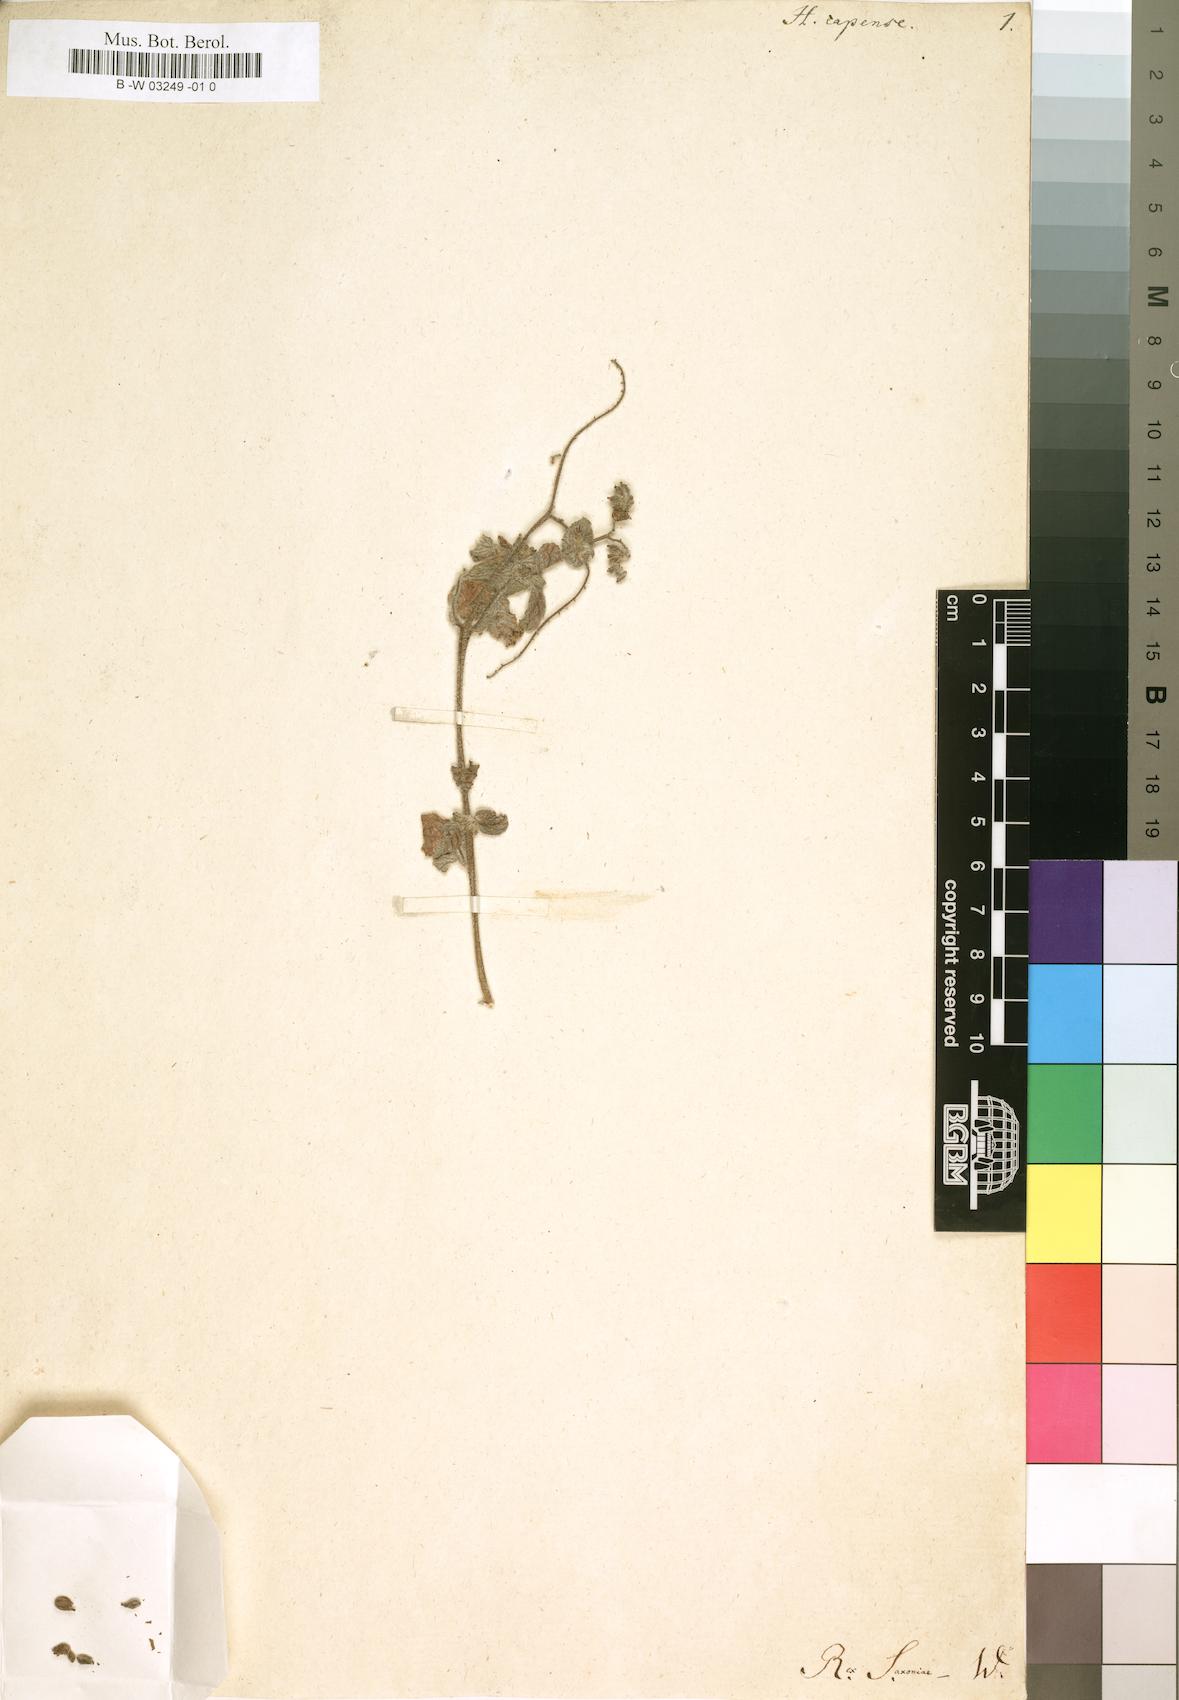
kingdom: Plantae
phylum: Tracheophyta
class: Magnoliopsida
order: Boraginales
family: Heliotropiaceae
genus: Heliotropium
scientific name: Heliotropium supinum
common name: Dwarf heliotrope
